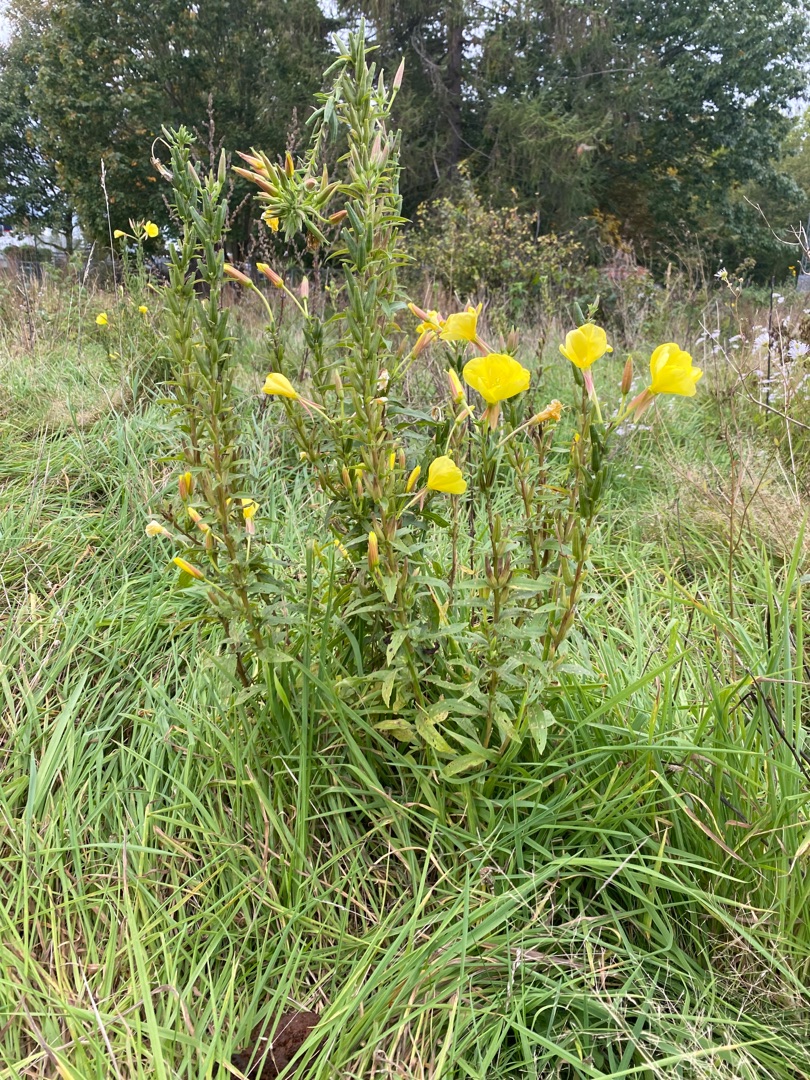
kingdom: Plantae
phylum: Tracheophyta
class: Magnoliopsida
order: Myrtales
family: Onagraceae
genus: Oenothera
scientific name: Oenothera glazioviana
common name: Kæmpe-natlys
